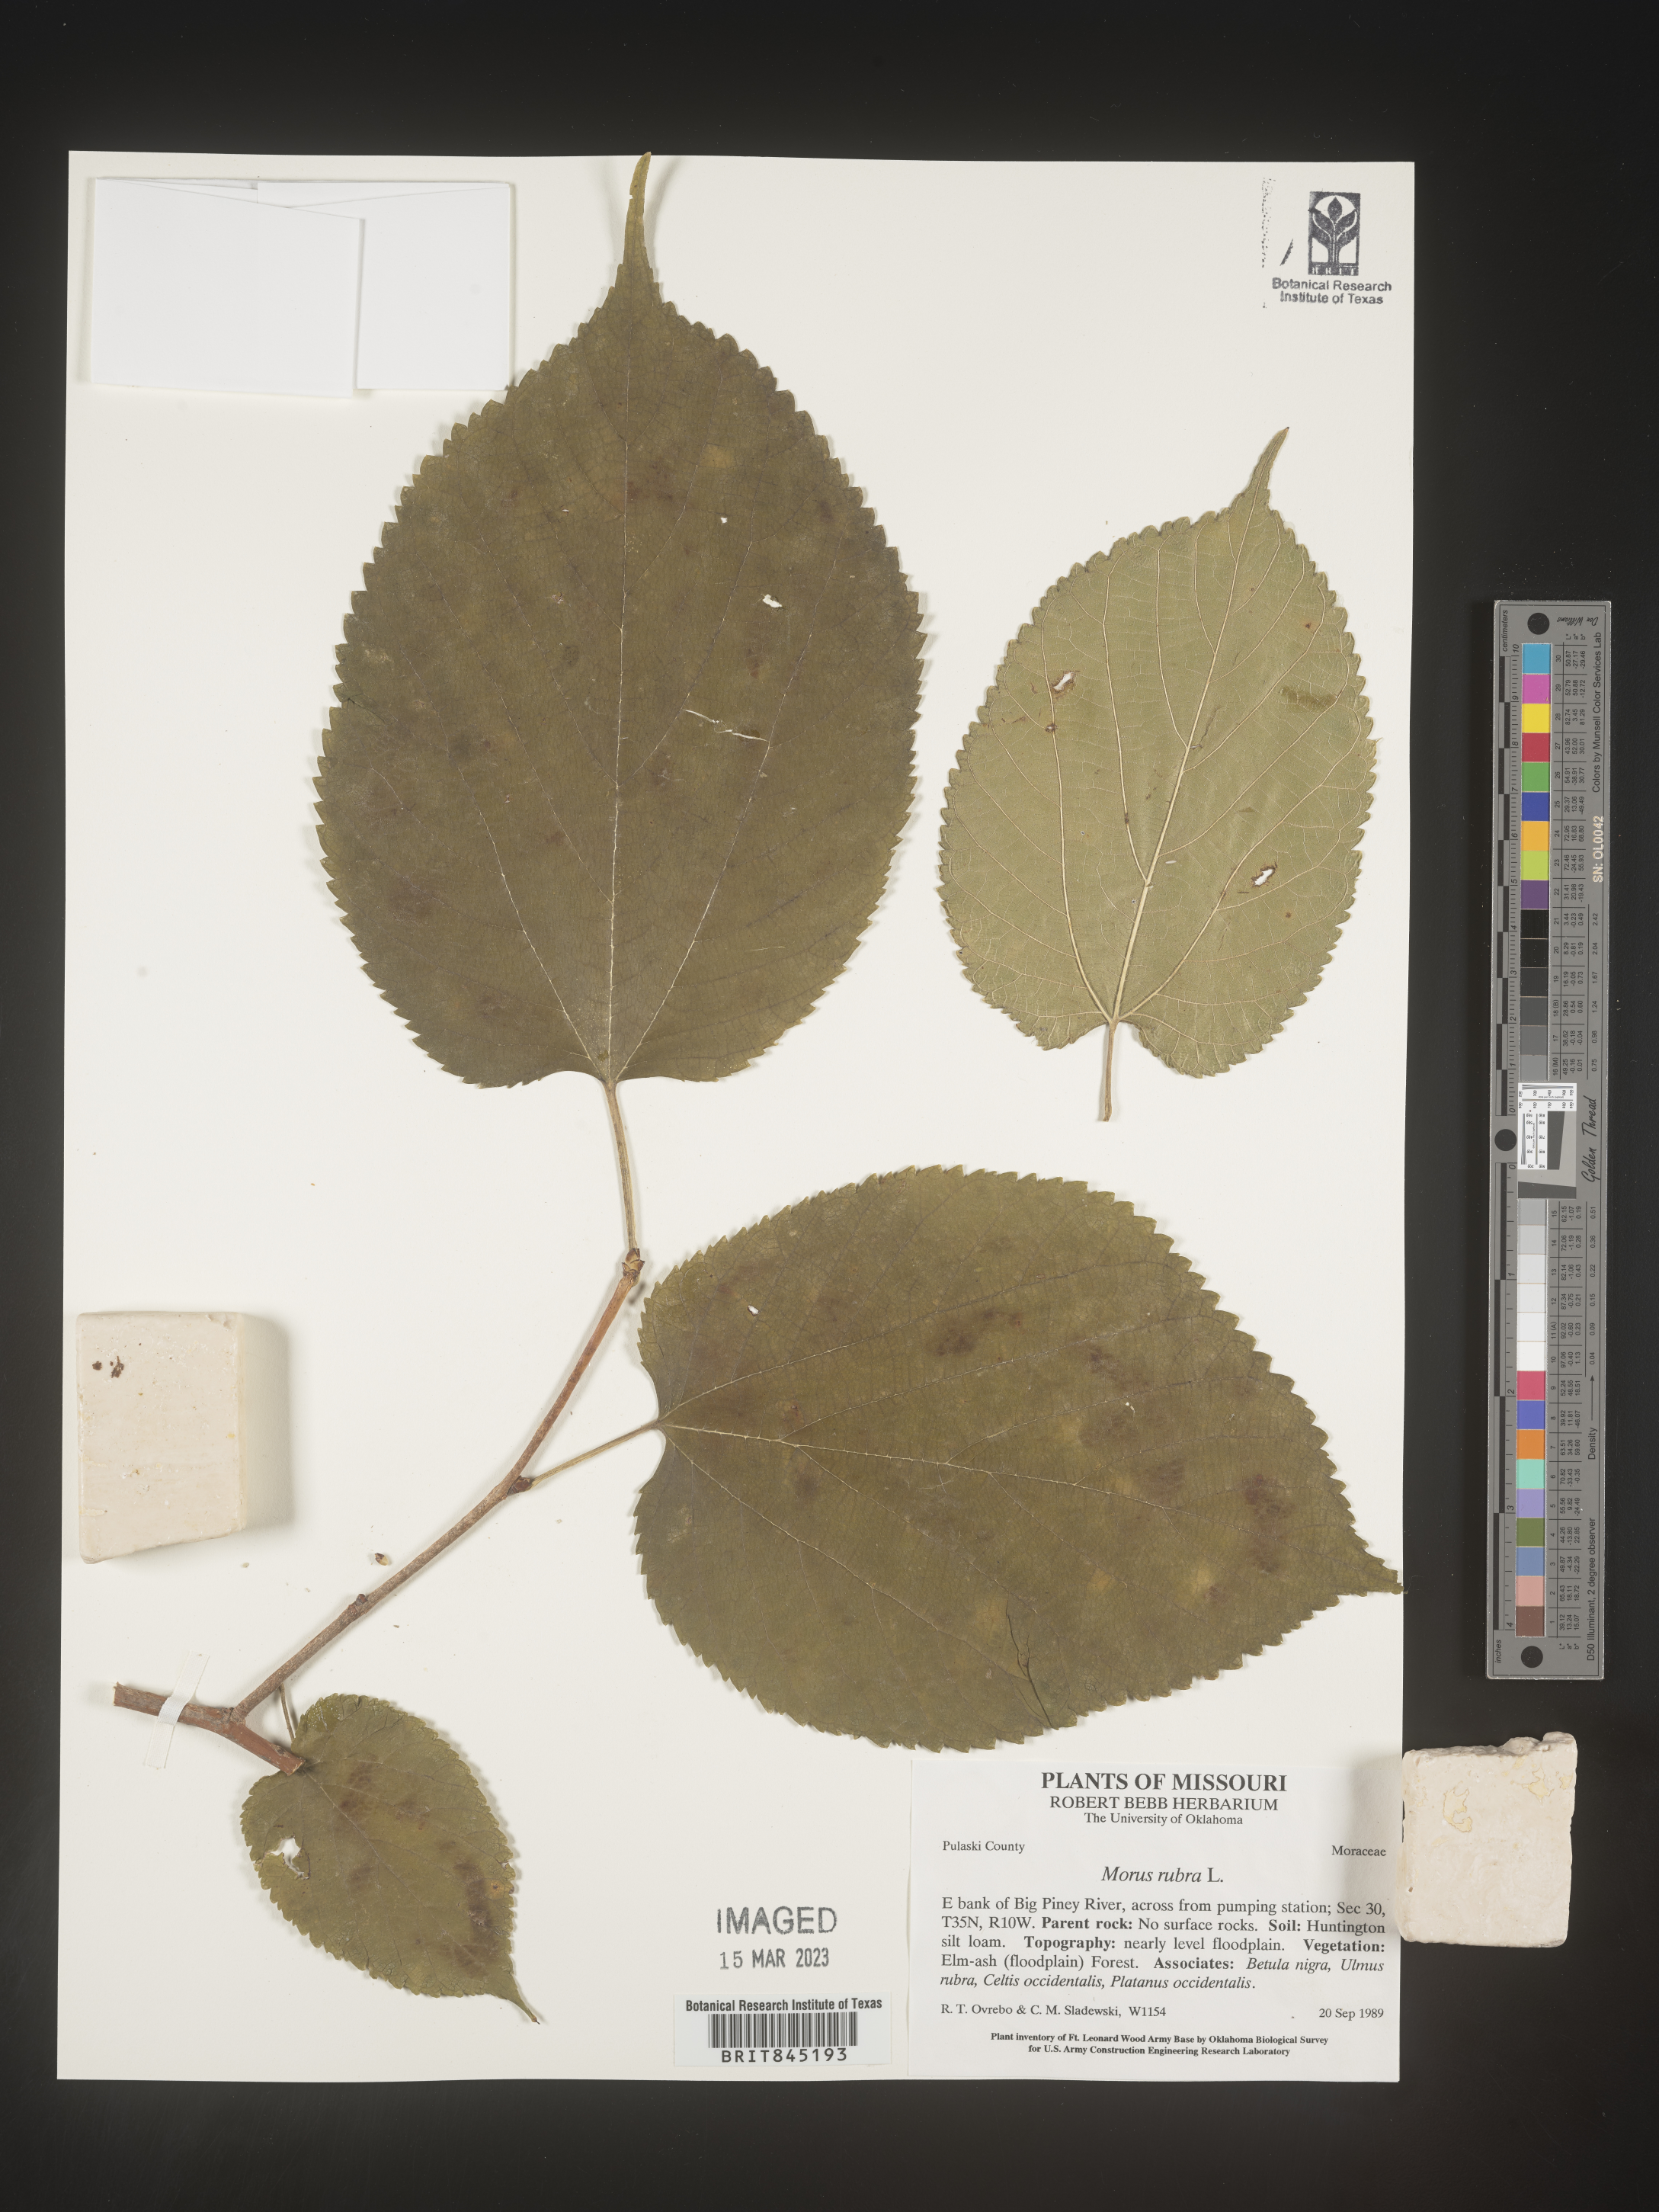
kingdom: Plantae
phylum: Tracheophyta
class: Magnoliopsida
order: Rosales
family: Moraceae
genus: Morus
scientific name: Morus rubra
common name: Red mulberry
